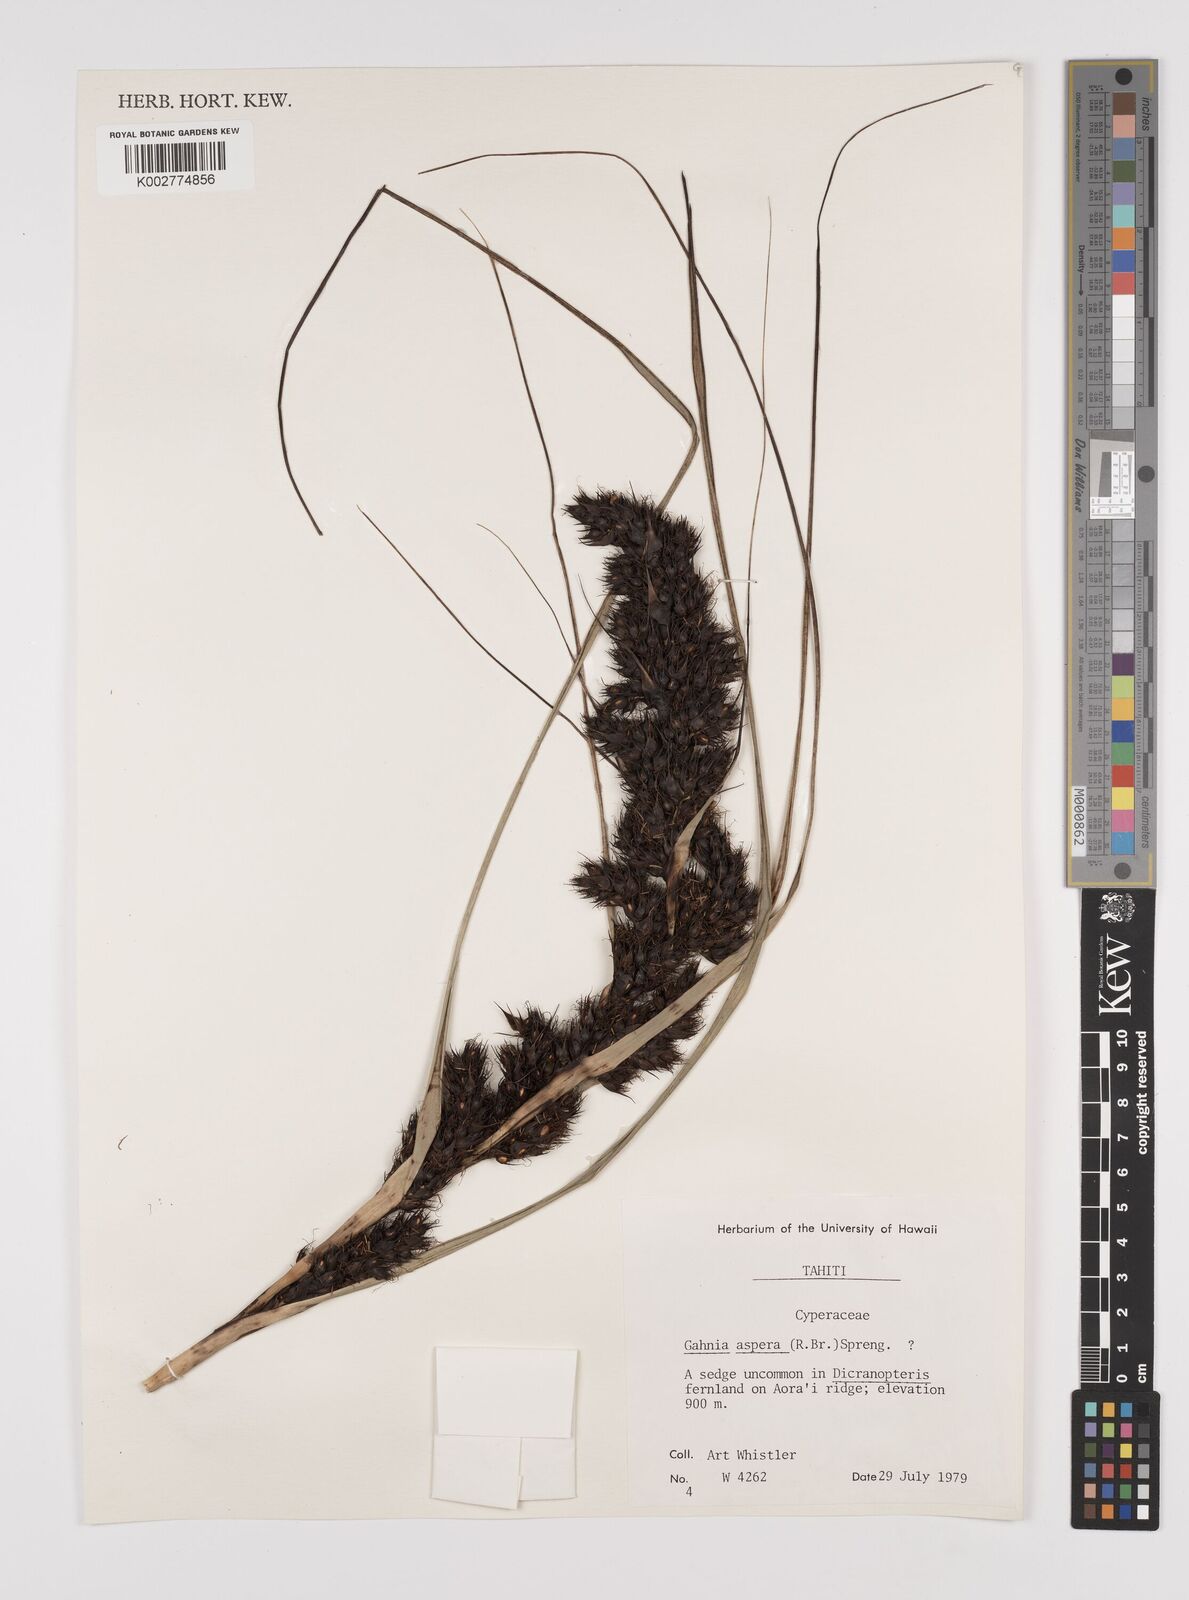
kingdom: Plantae
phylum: Tracheophyta
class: Liliopsida
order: Poales
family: Cyperaceae
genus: Gahnia
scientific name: Gahnia aspera
